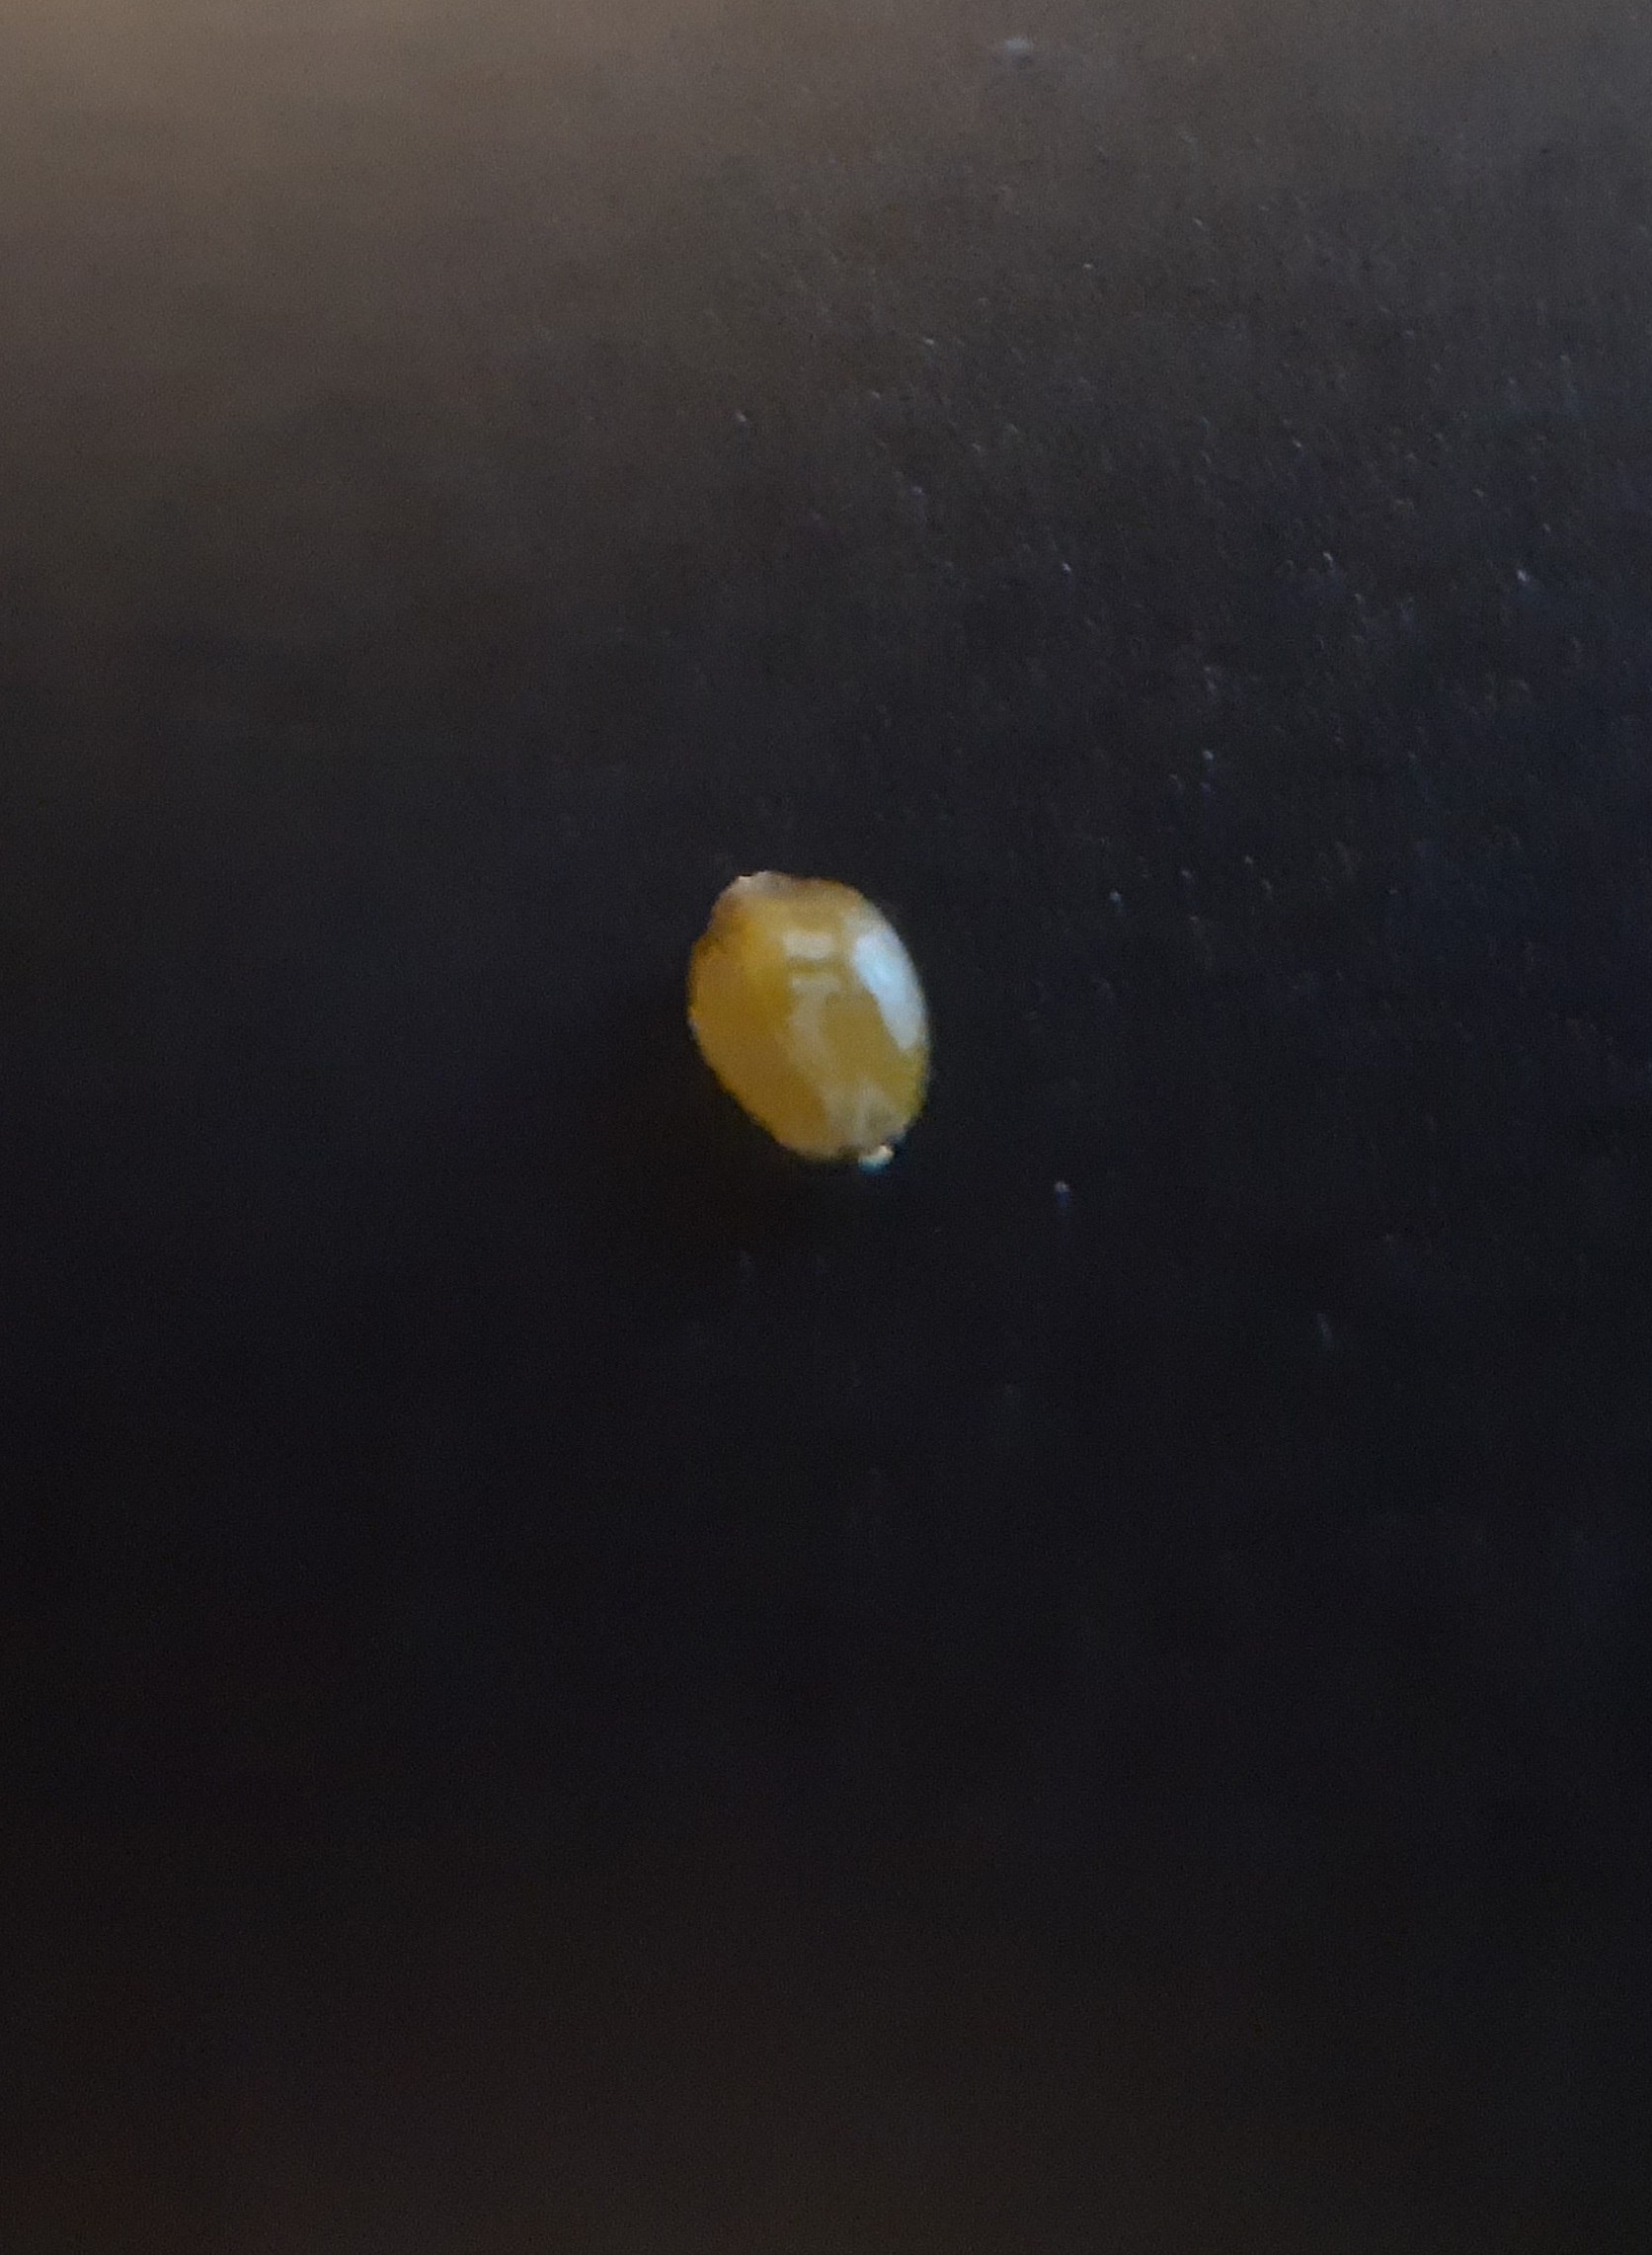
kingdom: Plantae
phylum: Tracheophyta
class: Liliopsida
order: Poales
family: Cyperaceae
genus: Carex
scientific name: Carex divulsa
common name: Mellembrudt star
